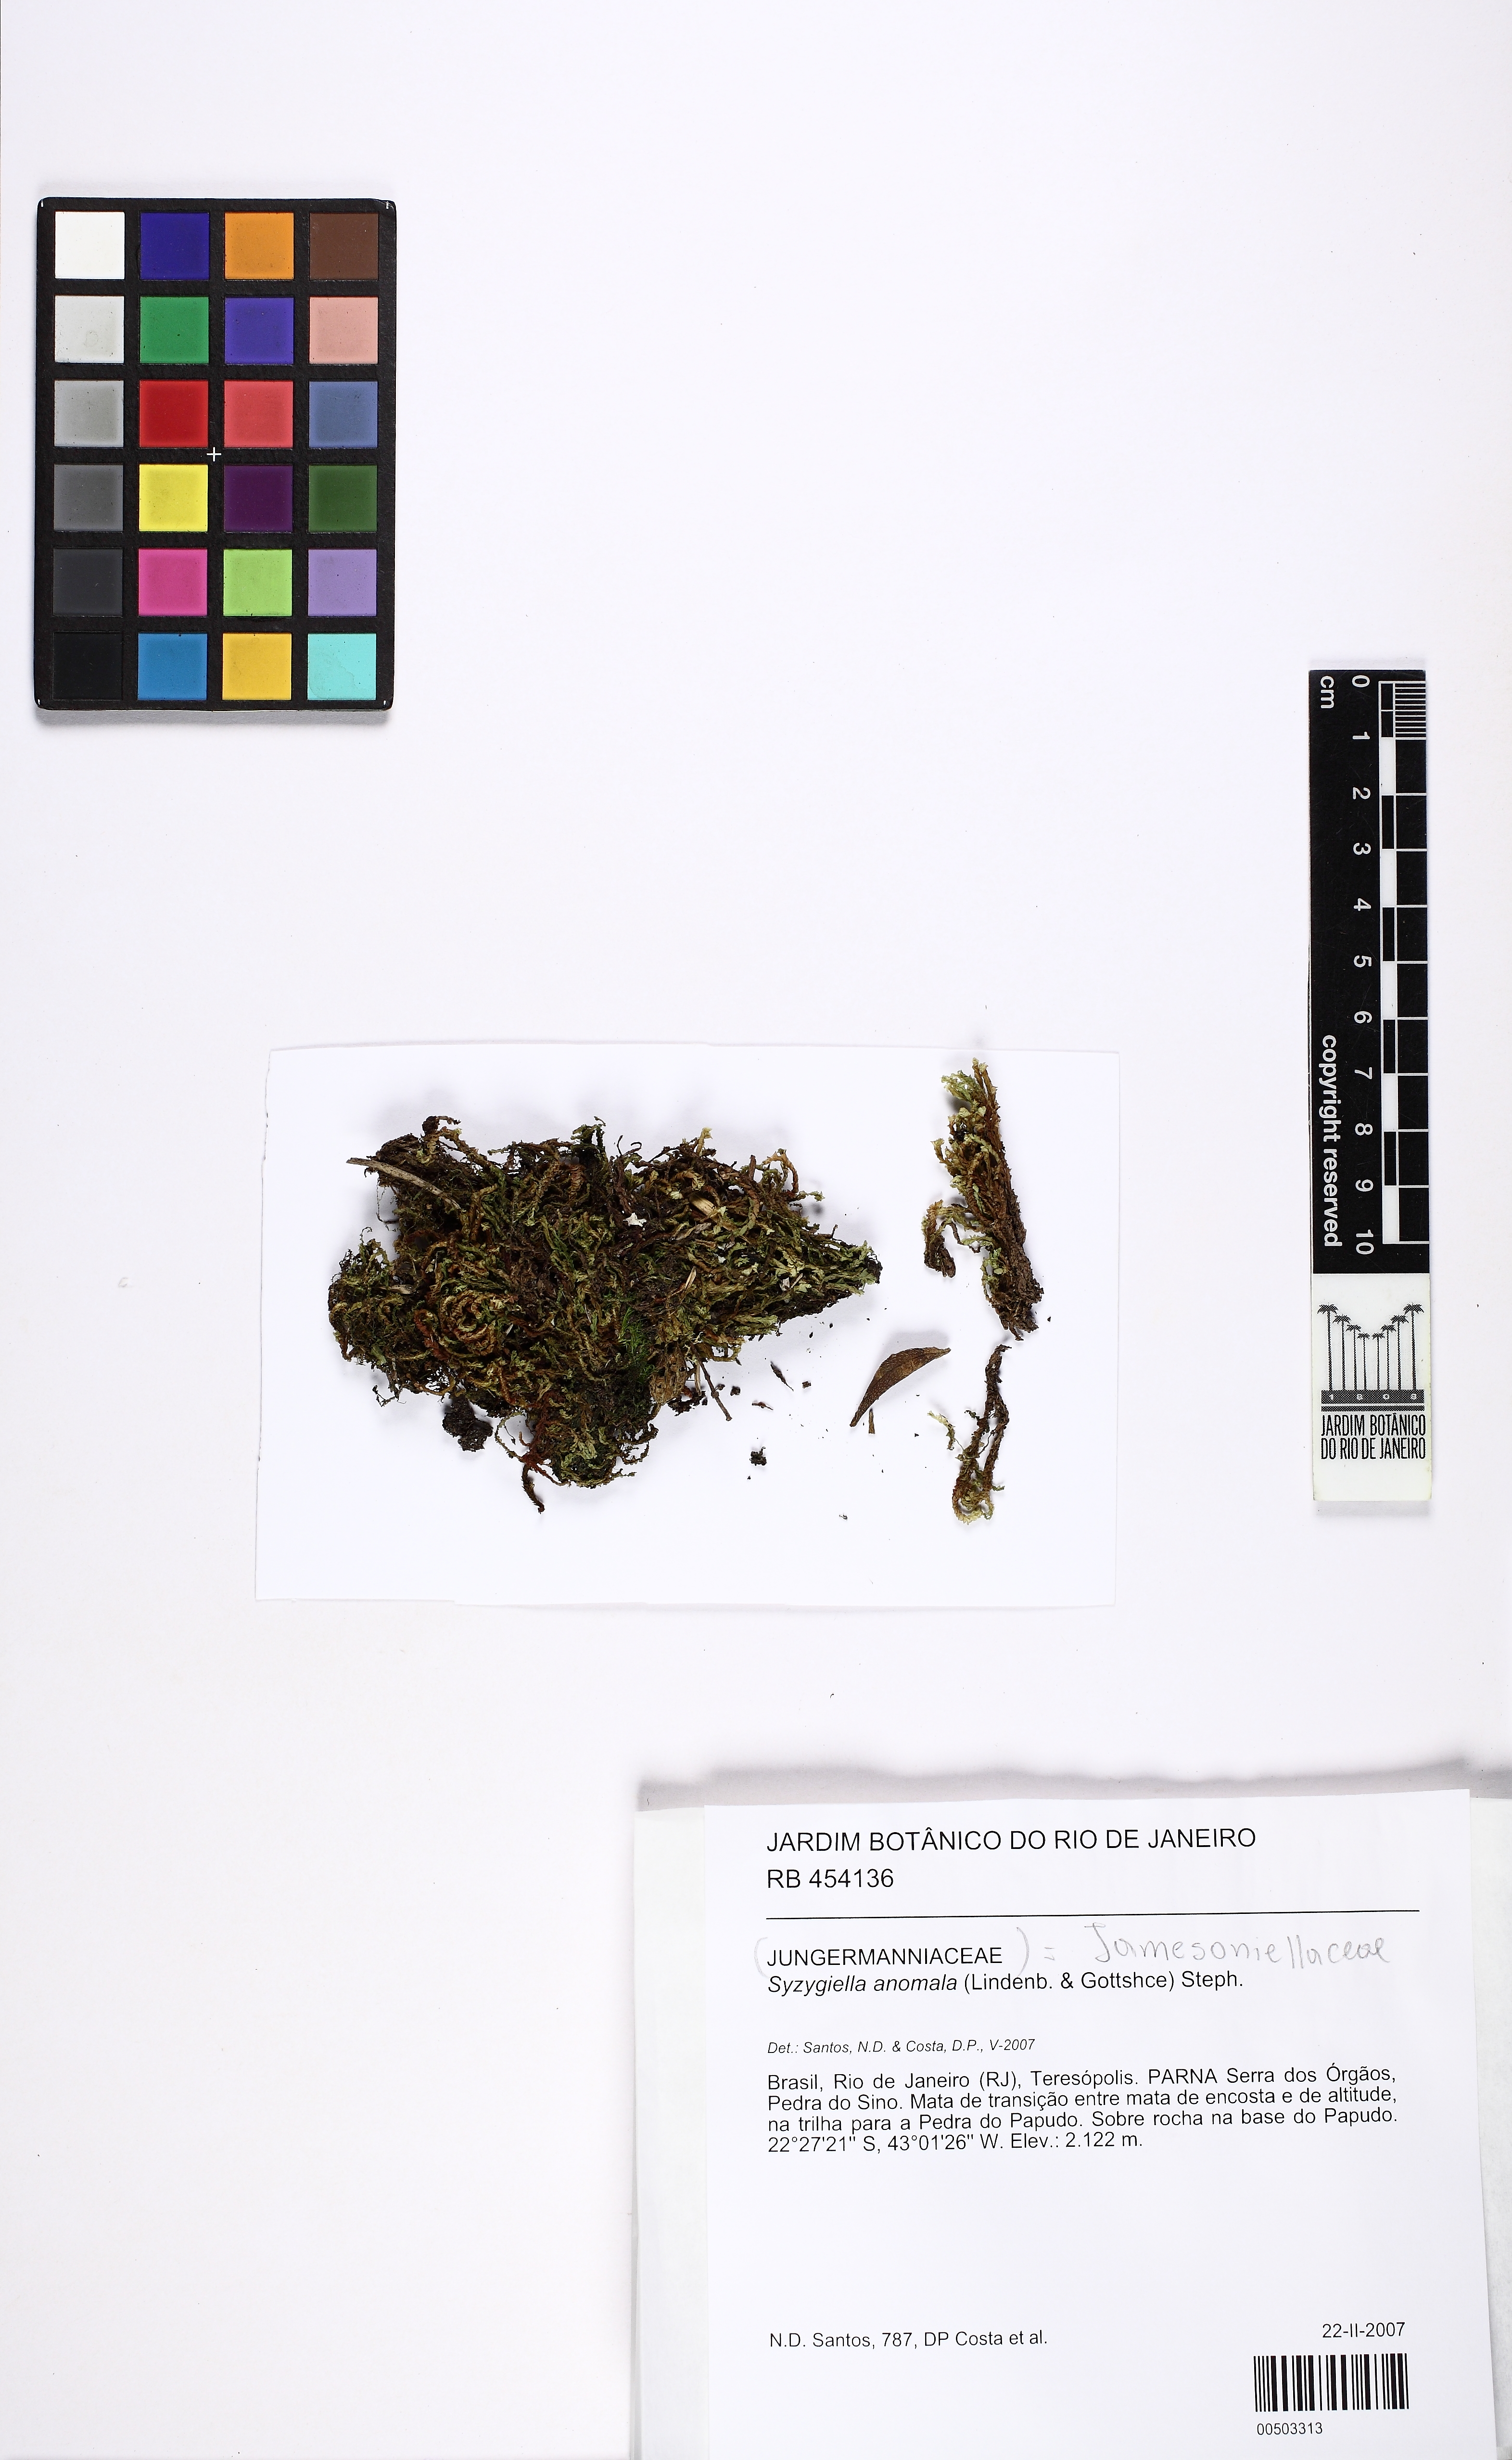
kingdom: Plantae
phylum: Marchantiophyta
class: Jungermanniopsida
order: Jungermanniales
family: Adelanthaceae
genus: Syzygiella
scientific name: Syzygiella anomala
